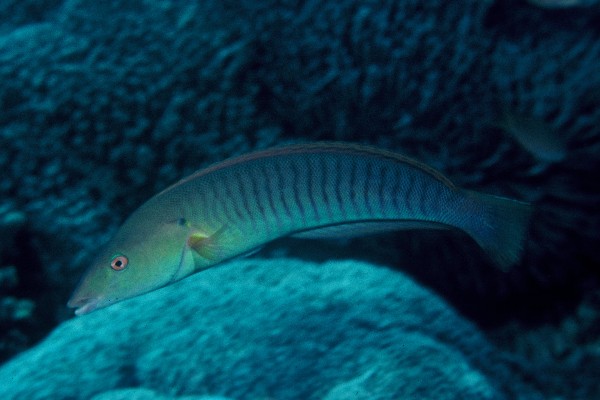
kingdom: Animalia
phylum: Chordata
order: Perciformes
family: Labridae
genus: Hologymnosus
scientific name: Hologymnosus doliatus
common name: Pastel ringwrasse
